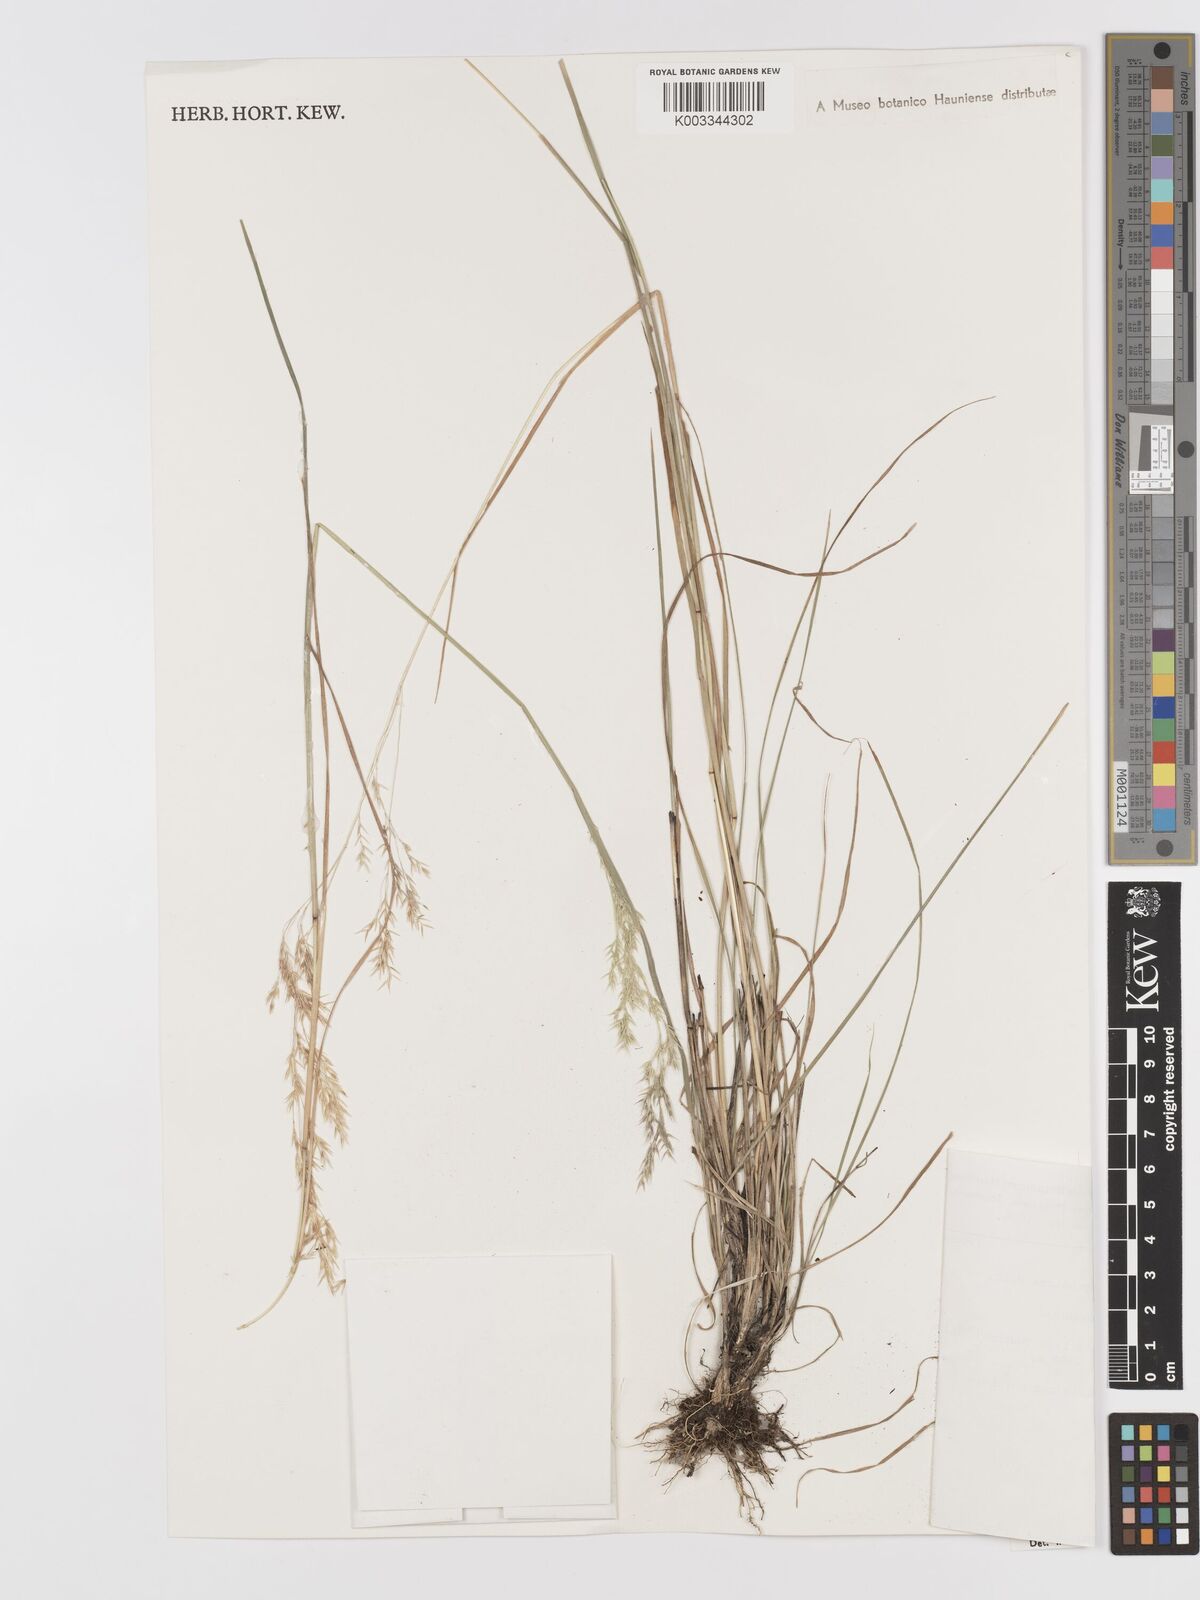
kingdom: Plantae
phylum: Tracheophyta
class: Liliopsida
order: Poales
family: Poaceae
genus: Agrostis
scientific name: Agrostis producta
